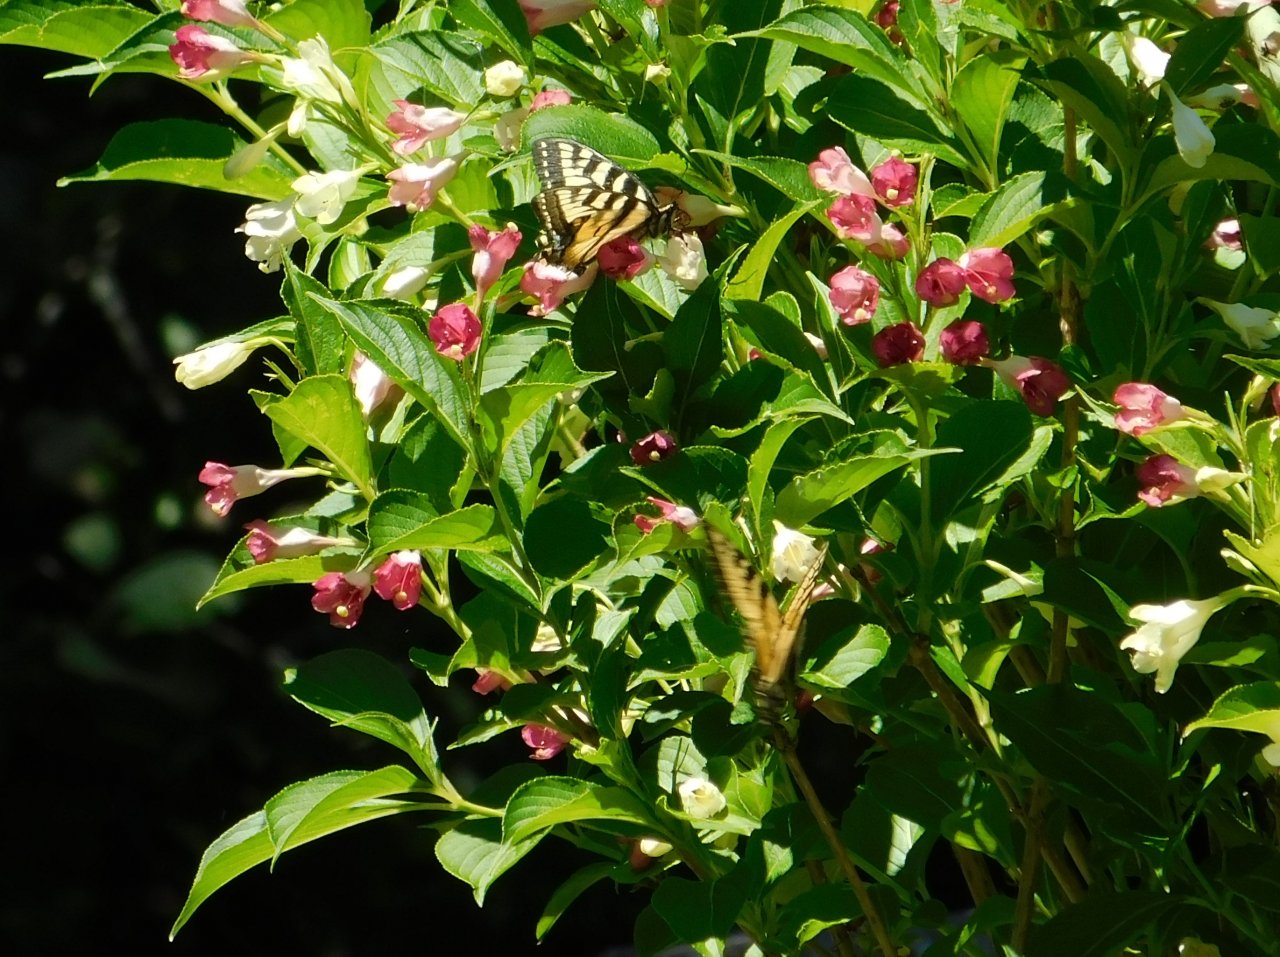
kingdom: Animalia
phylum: Arthropoda
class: Insecta
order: Lepidoptera
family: Papilionidae
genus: Pterourus
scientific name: Pterourus canadensis
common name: Canadian Tiger Swallowtail
